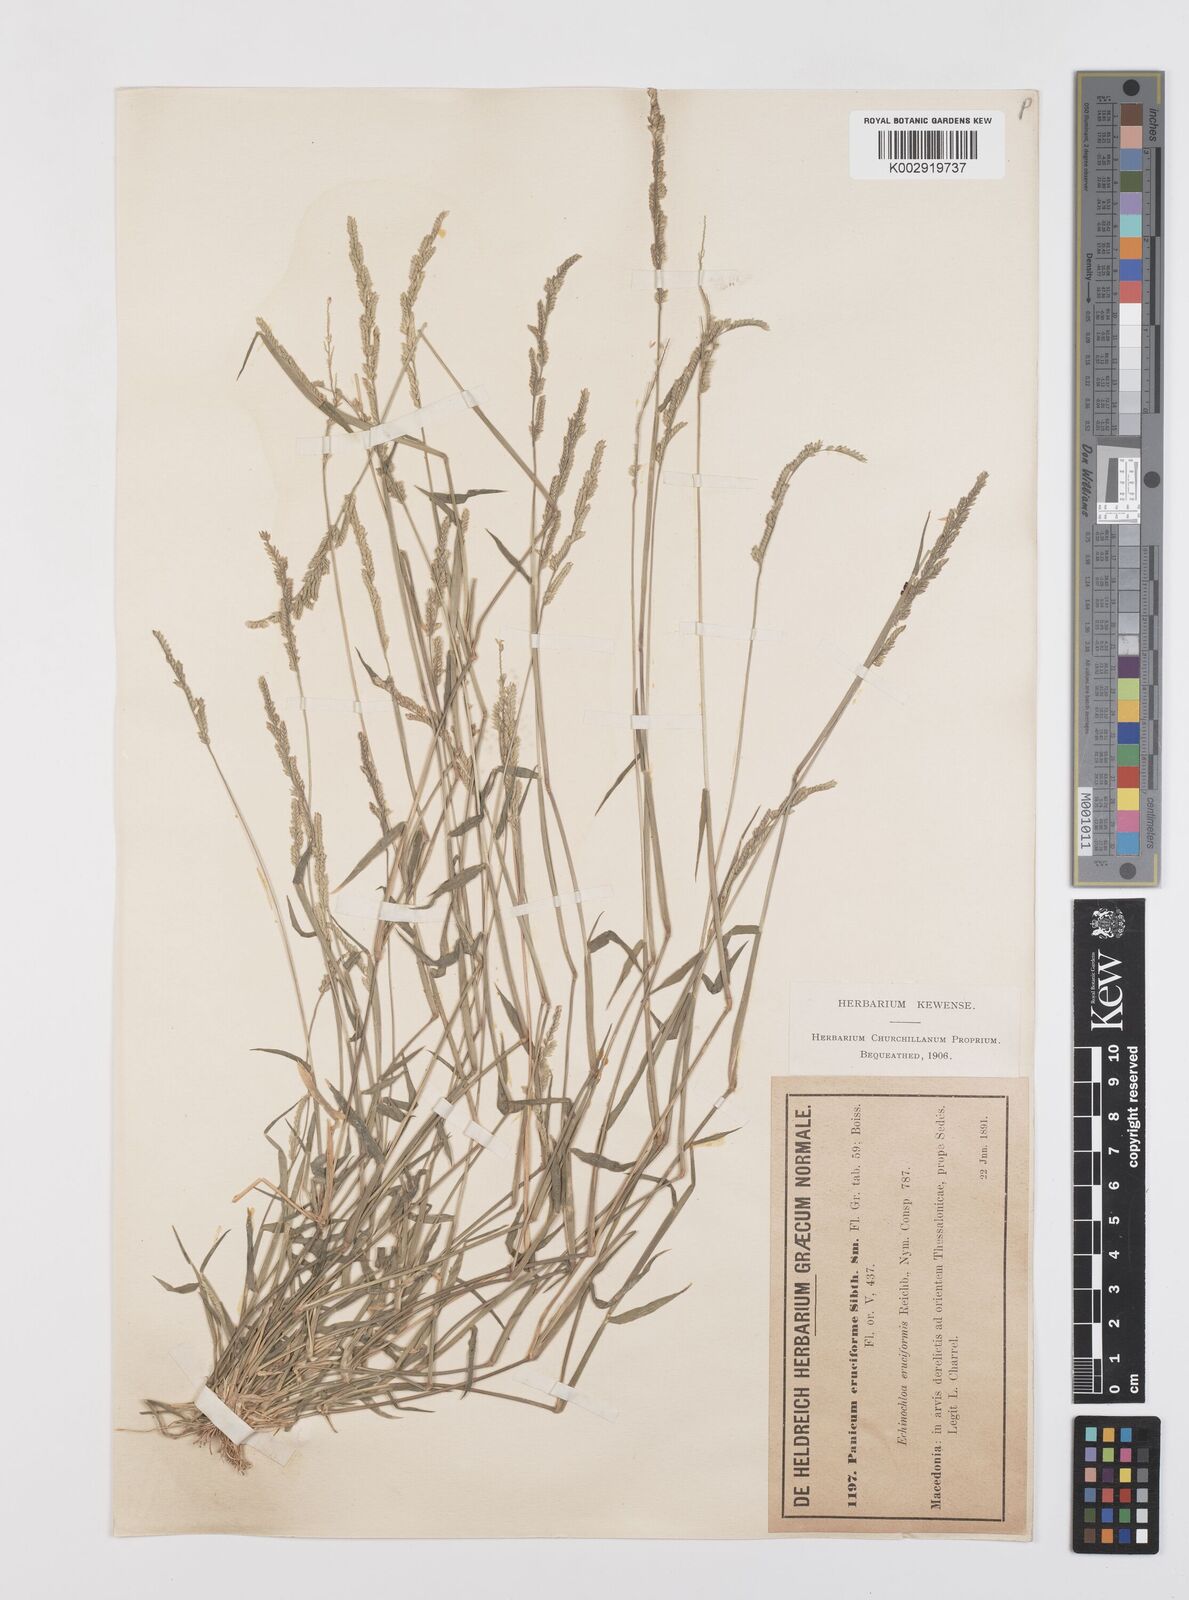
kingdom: Plantae
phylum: Tracheophyta
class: Liliopsida
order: Poales
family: Poaceae
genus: Moorochloa
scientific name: Moorochloa eruciformis
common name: Sweet signalgrass
